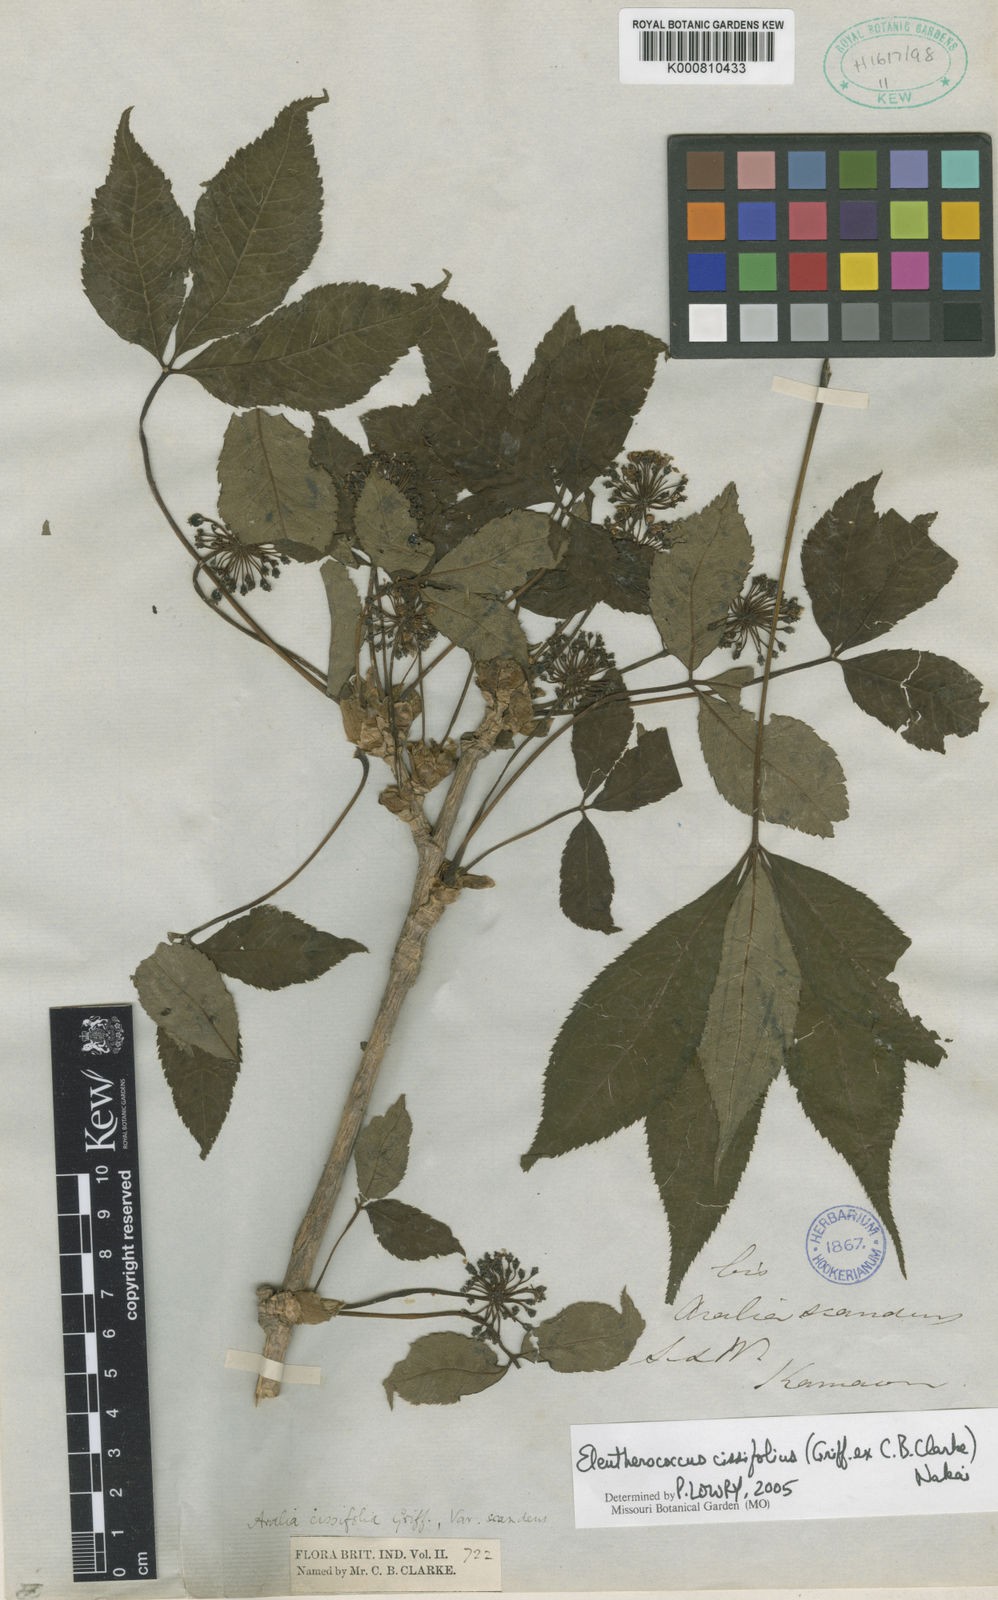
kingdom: Plantae
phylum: Tracheophyta
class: Magnoliopsida
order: Apiales
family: Araliaceae
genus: Eleutherococcus
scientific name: Eleutherococcus cissifolius
